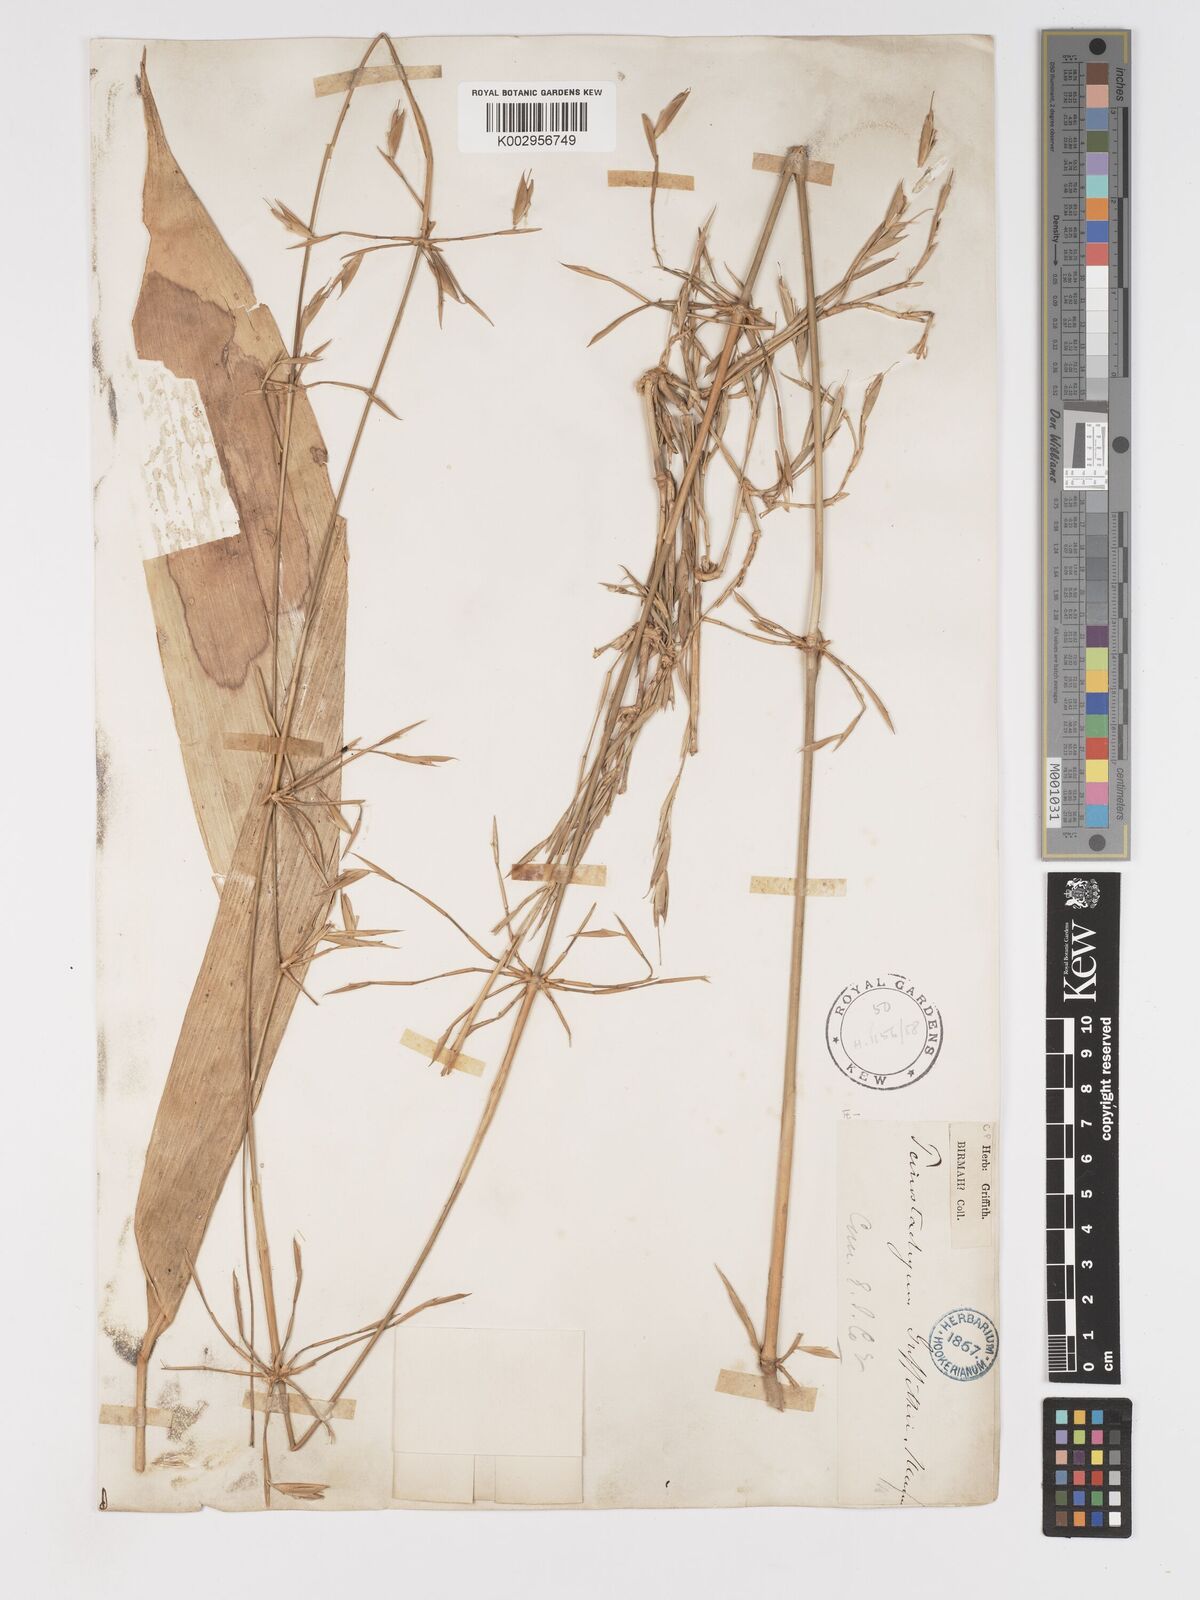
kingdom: Plantae
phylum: Tracheophyta
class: Liliopsida
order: Poales
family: Poaceae
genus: Schizostachyum
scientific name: Schizostachyum griffithii
